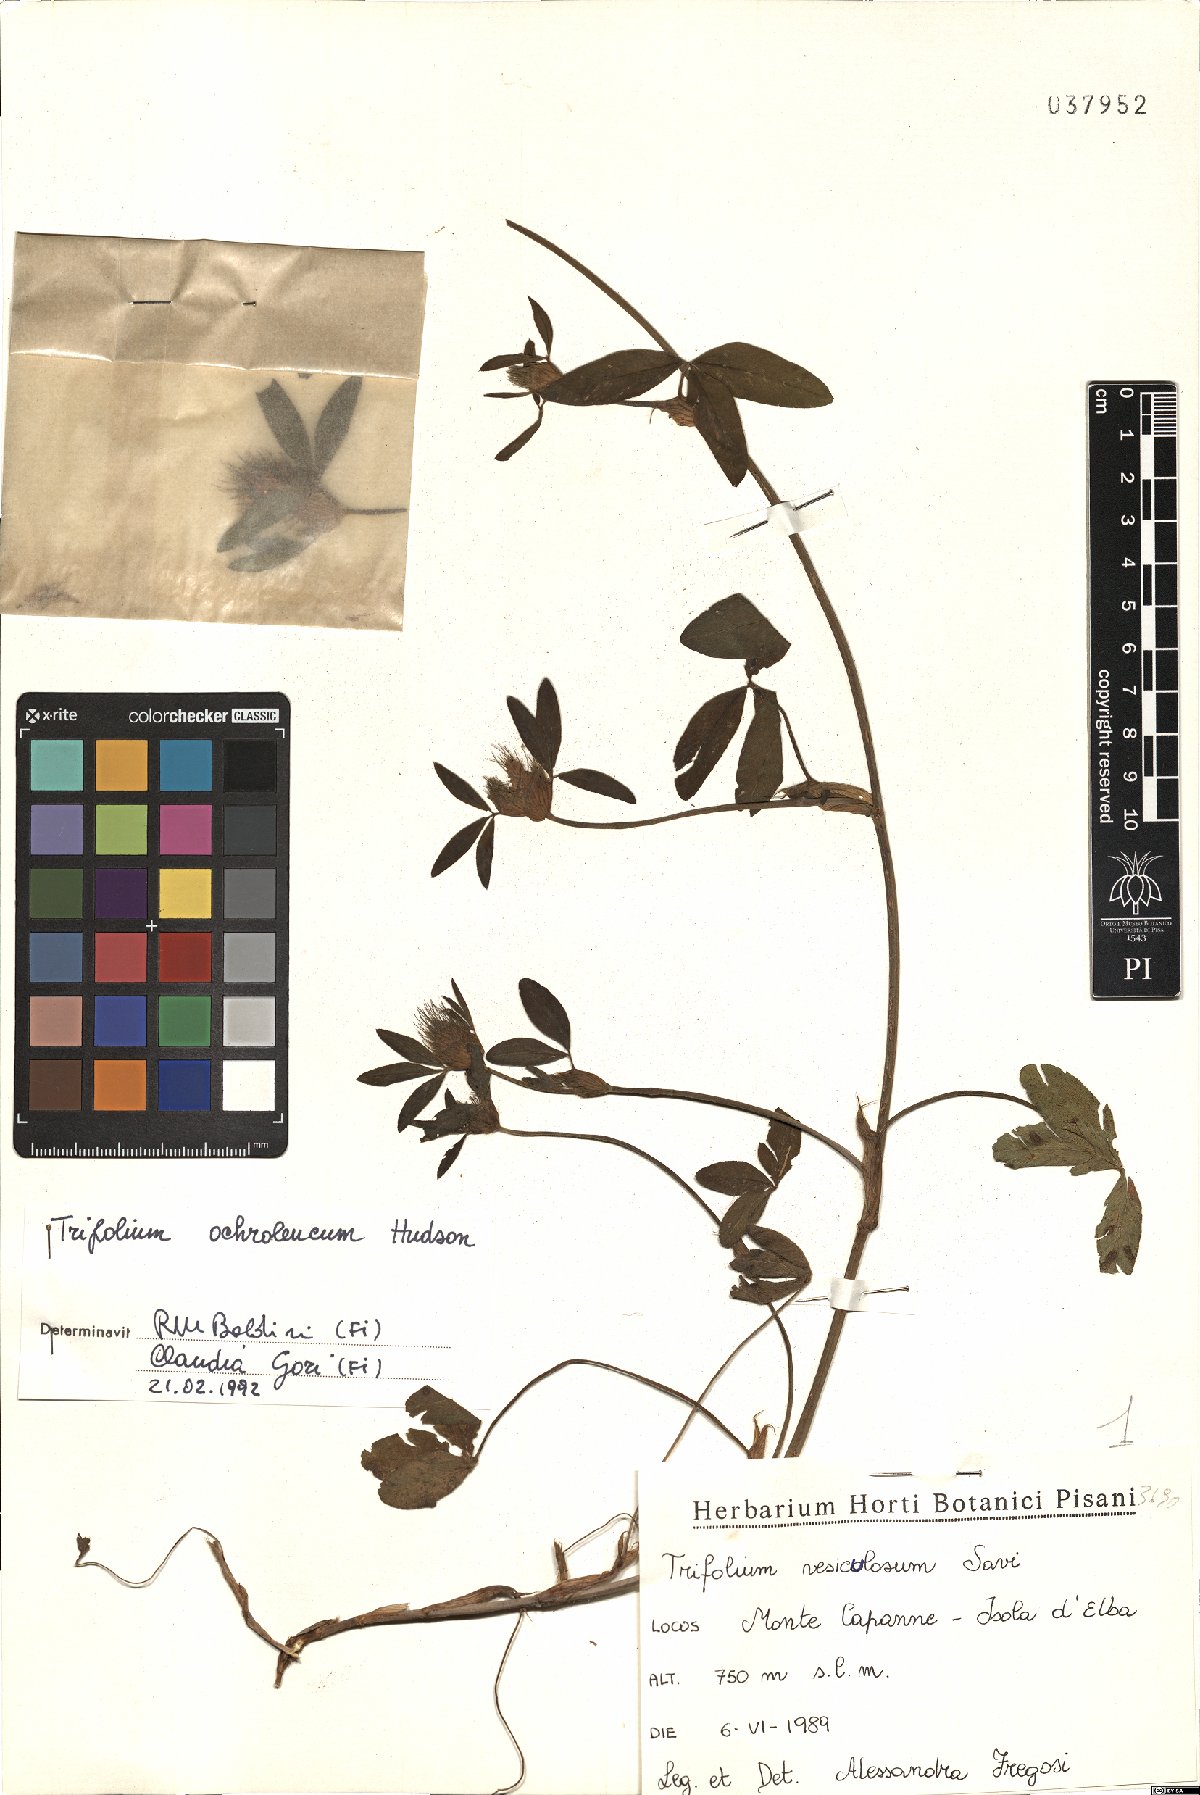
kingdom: Plantae
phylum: Tracheophyta
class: Magnoliopsida
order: Fabales
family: Fabaceae
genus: Trifolium
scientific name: Trifolium vesiculosum
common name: Arrowleaf clover
